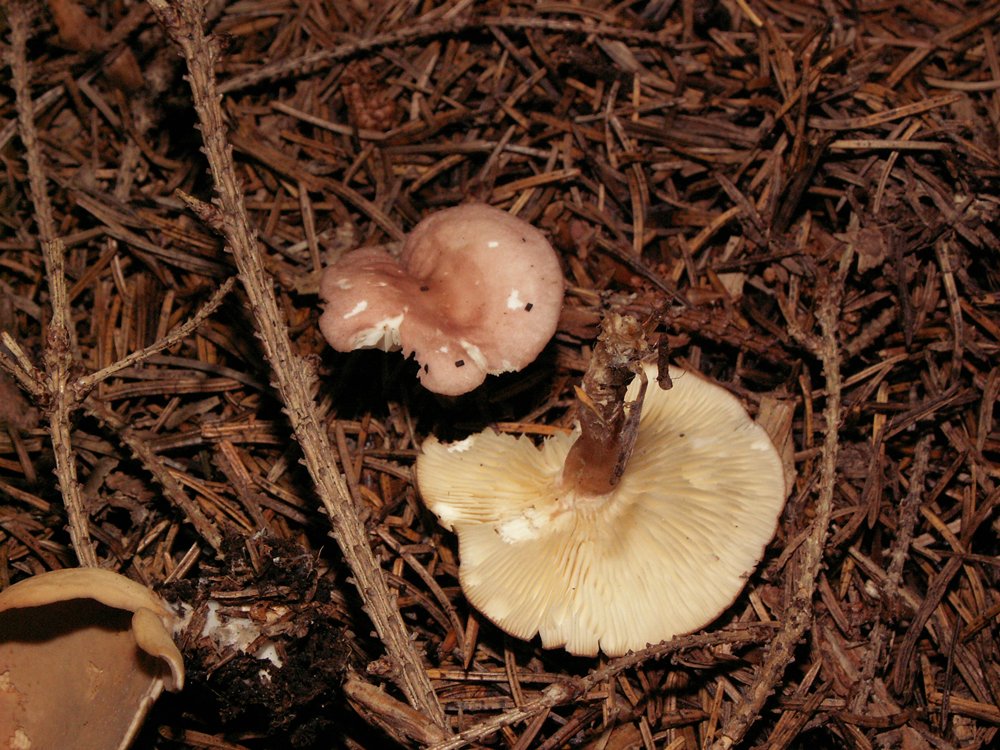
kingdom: Fungi
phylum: Basidiomycota
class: Agaricomycetes
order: Agaricales
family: Lyophyllaceae
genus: Calocybe
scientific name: Calocybe carnea
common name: rosa fagerhat
